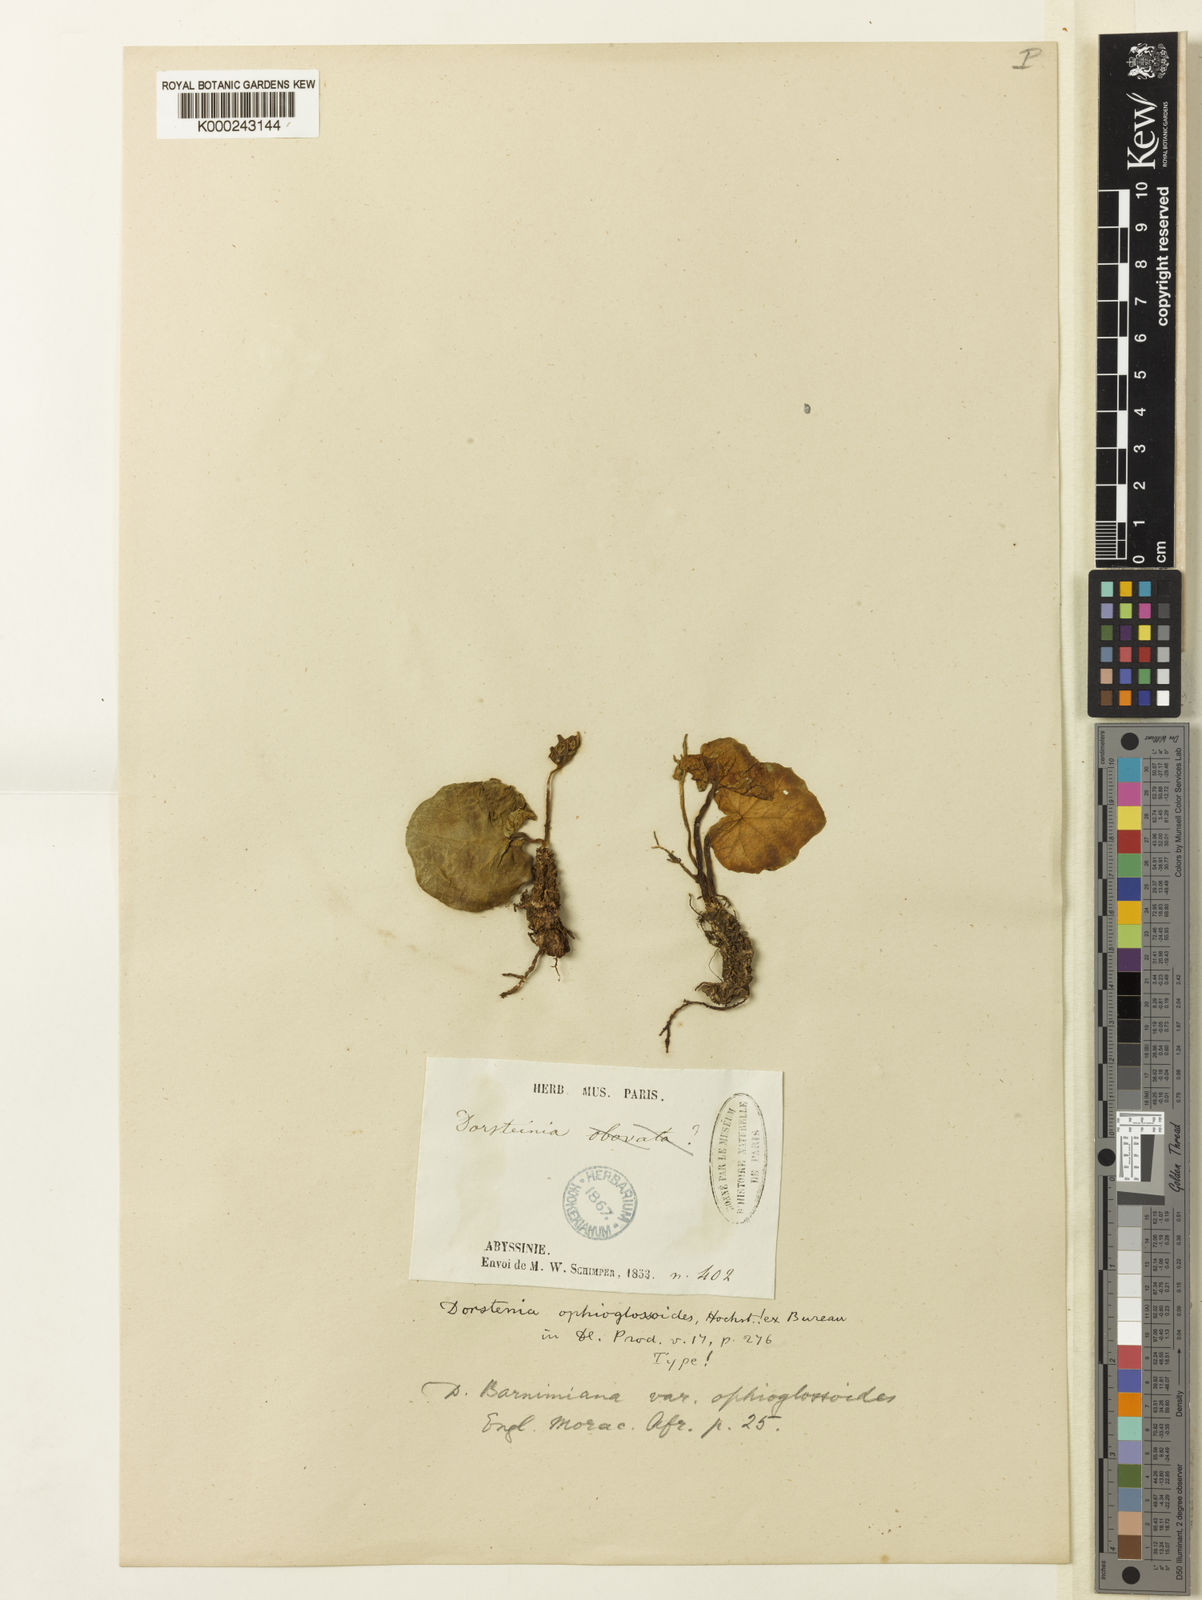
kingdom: Plantae
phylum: Tracheophyta
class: Magnoliopsida
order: Rosales
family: Moraceae
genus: Dorstenia
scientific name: Dorstenia
